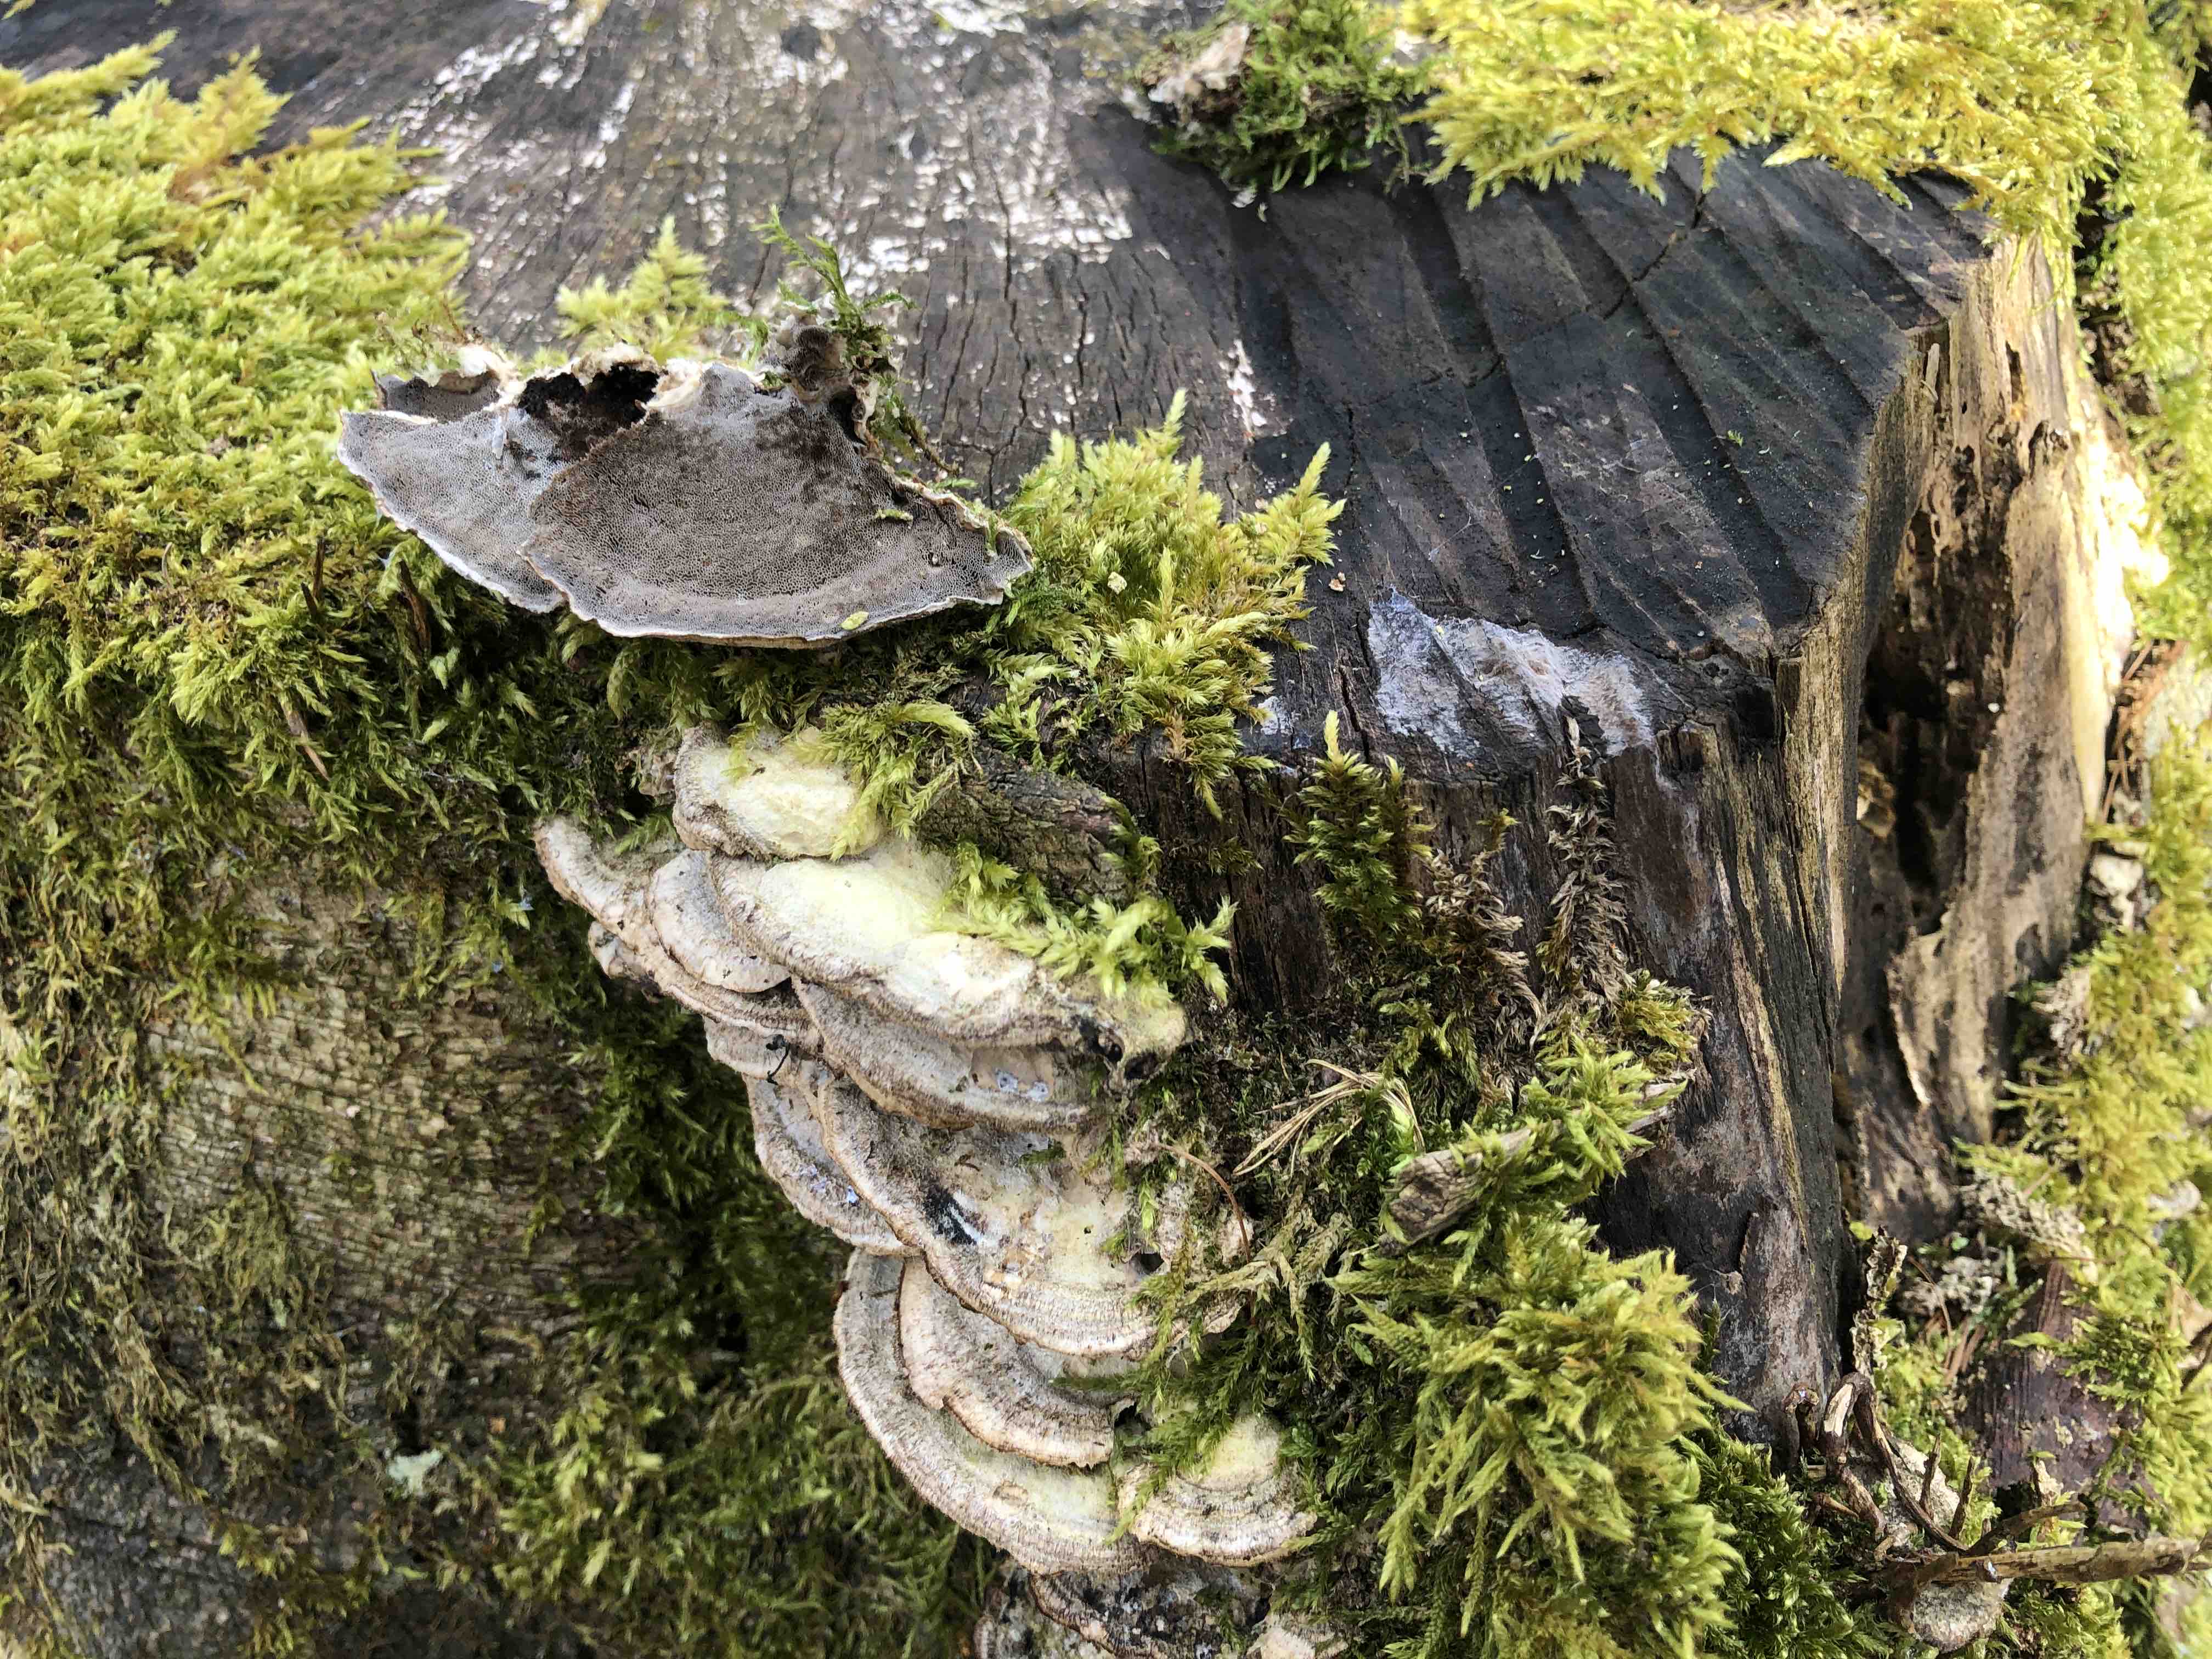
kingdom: Fungi
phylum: Basidiomycota
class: Agaricomycetes
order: Polyporales
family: Phanerochaetaceae
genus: Bjerkandera
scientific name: Bjerkandera adusta
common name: sveden sodporesvamp
